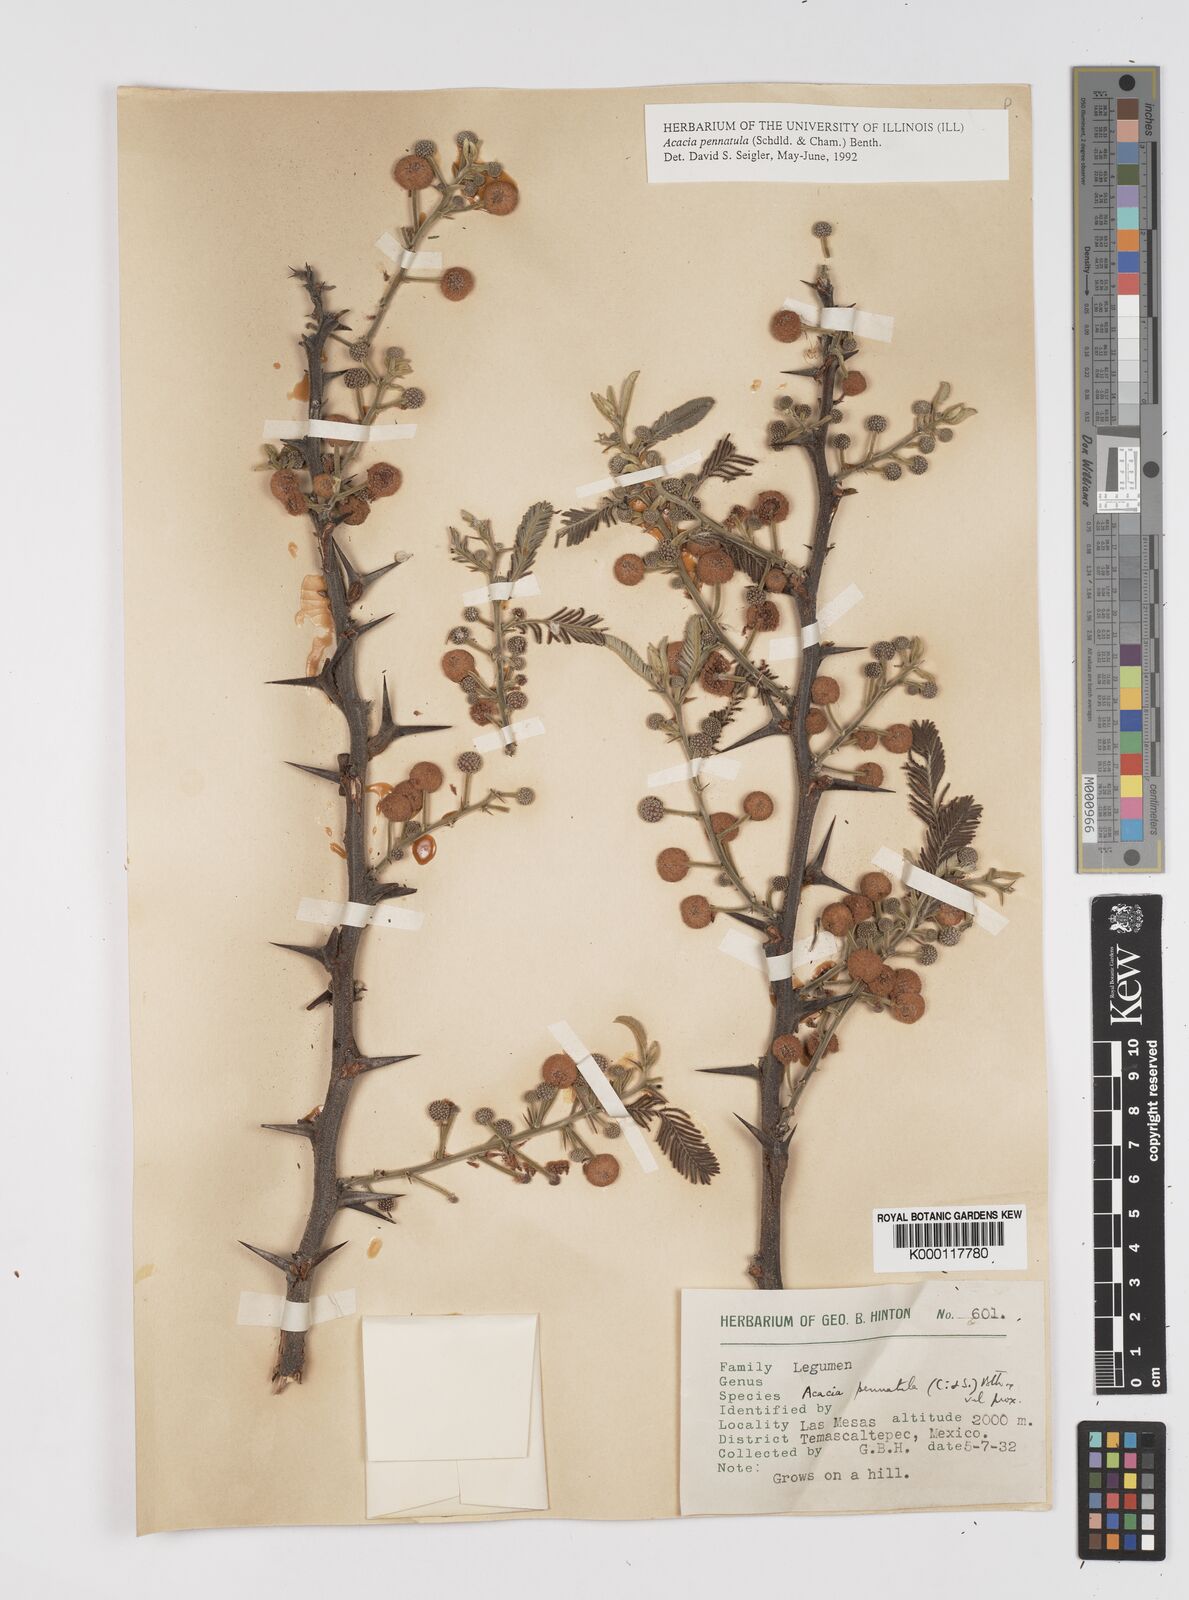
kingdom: Plantae
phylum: Tracheophyta
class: Magnoliopsida
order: Fabales
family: Fabaceae
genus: Vachellia
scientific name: Vachellia pennatula
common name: Fern-leaf acacia
